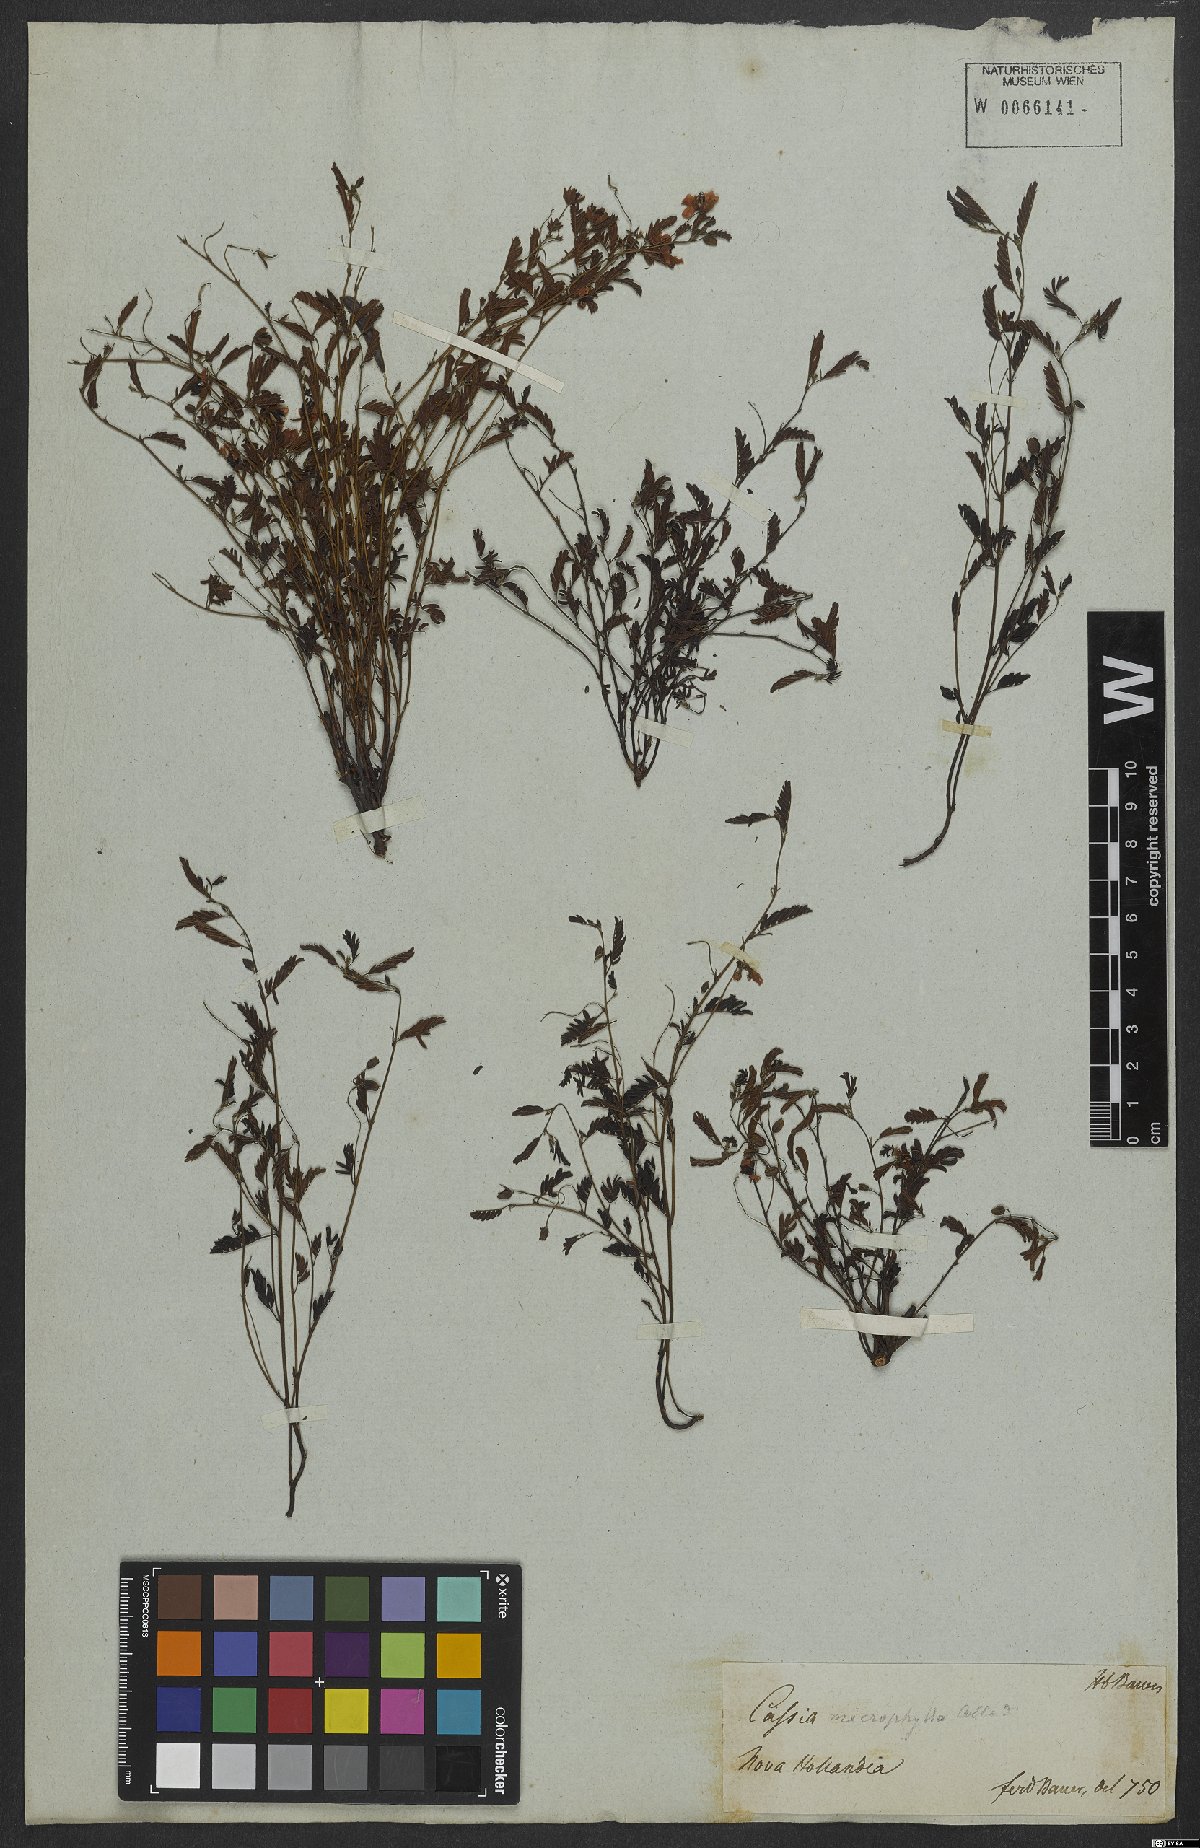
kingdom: Plantae
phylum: Tracheophyta
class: Magnoliopsida
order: Fabales
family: Fabaceae
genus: Chamaecrista
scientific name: Chamaecrista mimosoides
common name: Fish-bone cassia
